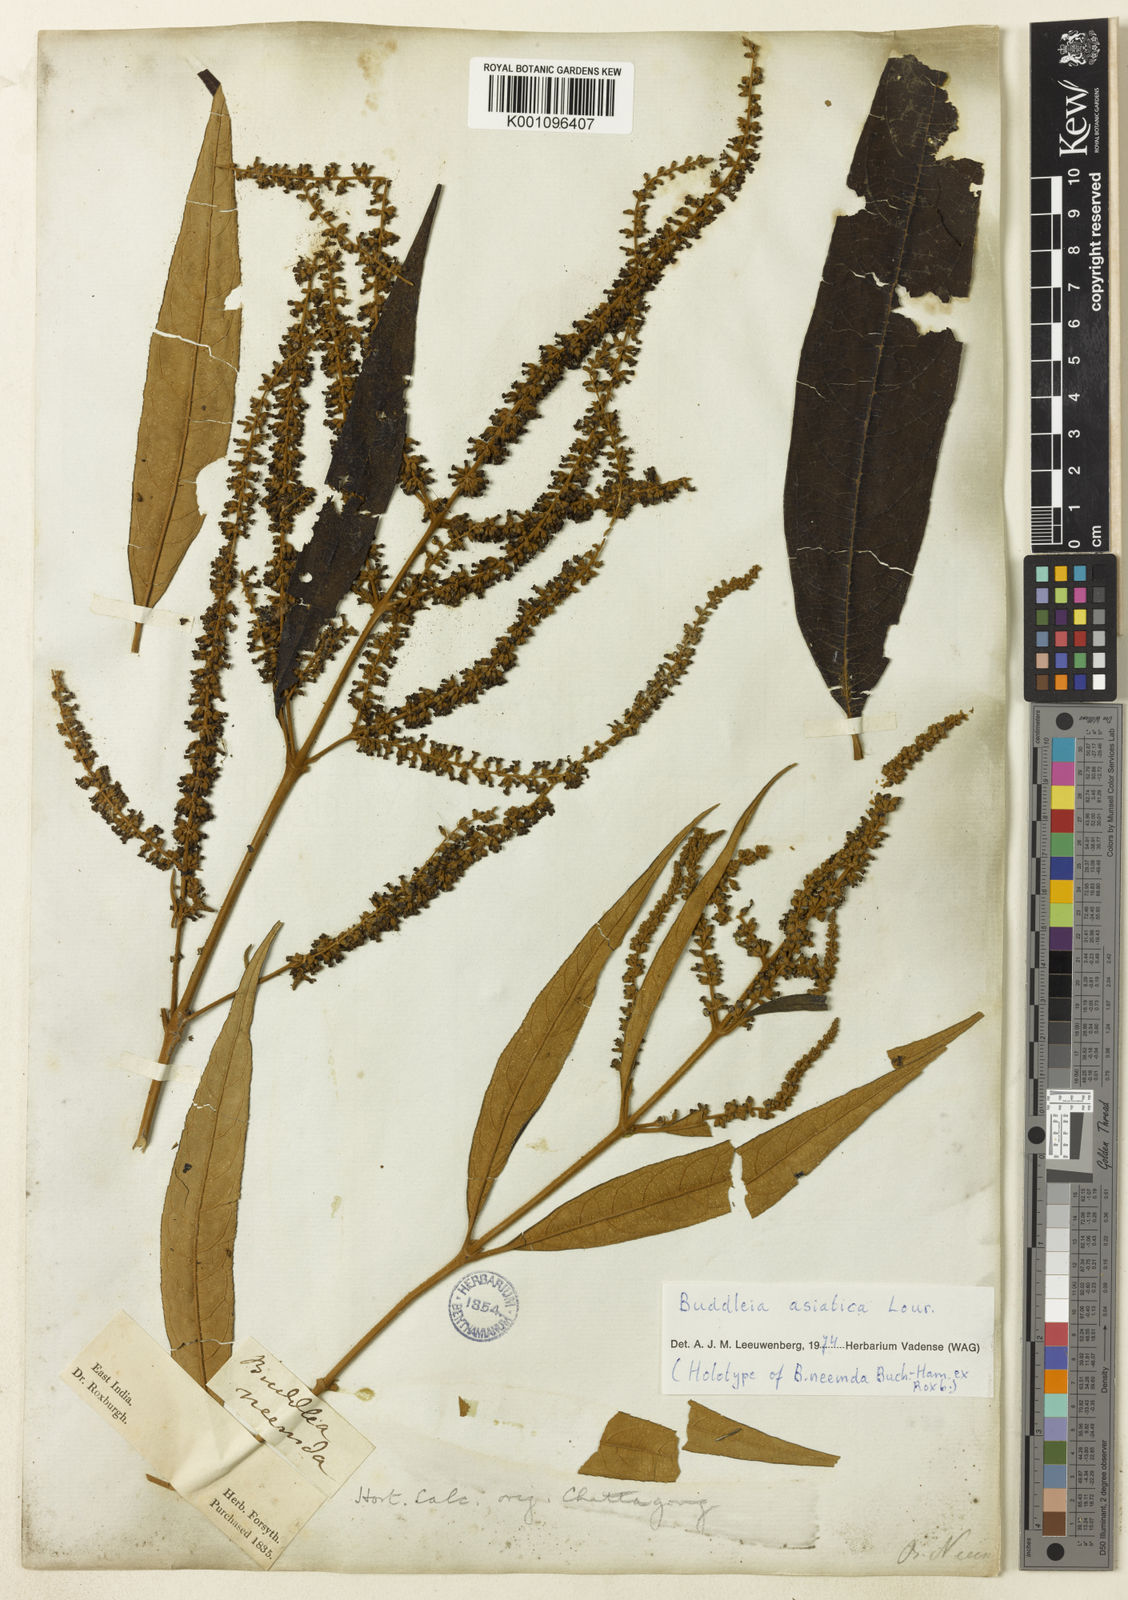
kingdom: Plantae
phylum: Tracheophyta
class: Magnoliopsida
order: Lamiales
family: Scrophulariaceae
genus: Buddleja
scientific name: Buddleja asiatica
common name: Dog tail
